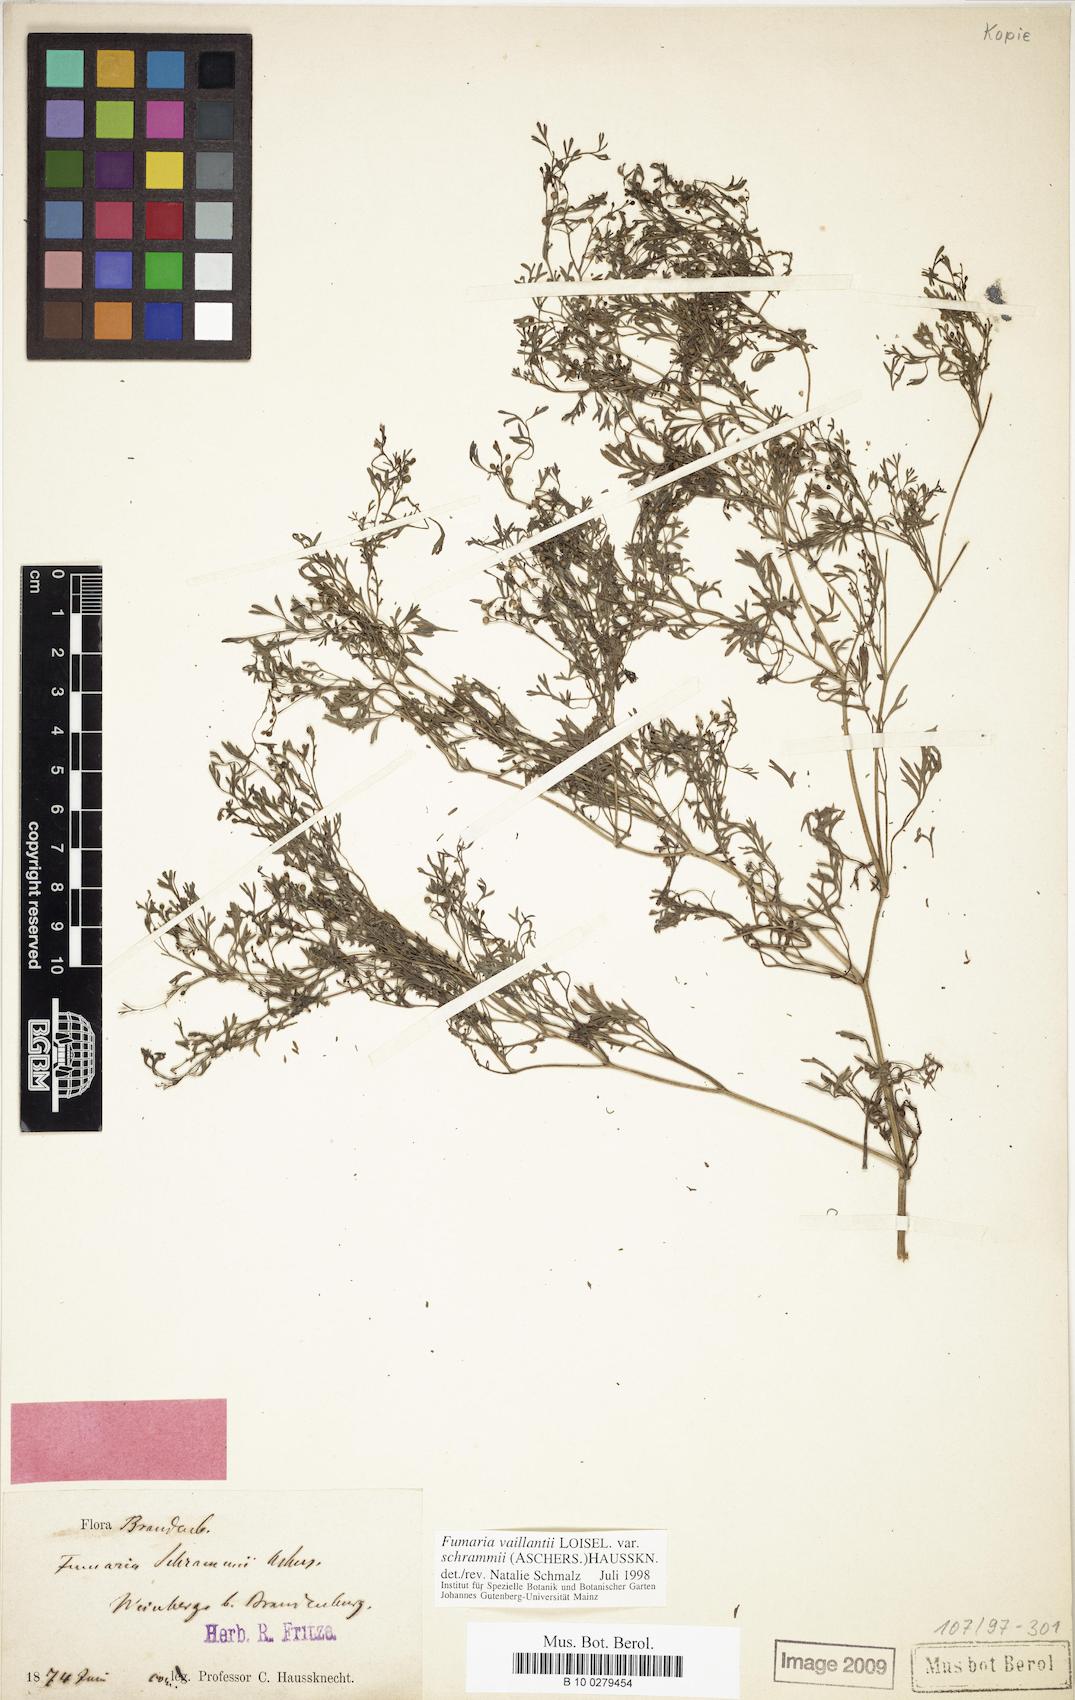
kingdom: Plantae
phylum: Tracheophyta
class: Magnoliopsida
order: Ranunculales
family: Papaveraceae
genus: Fumaria
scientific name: Fumaria vaillantii
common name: Few-flowered fumitory
